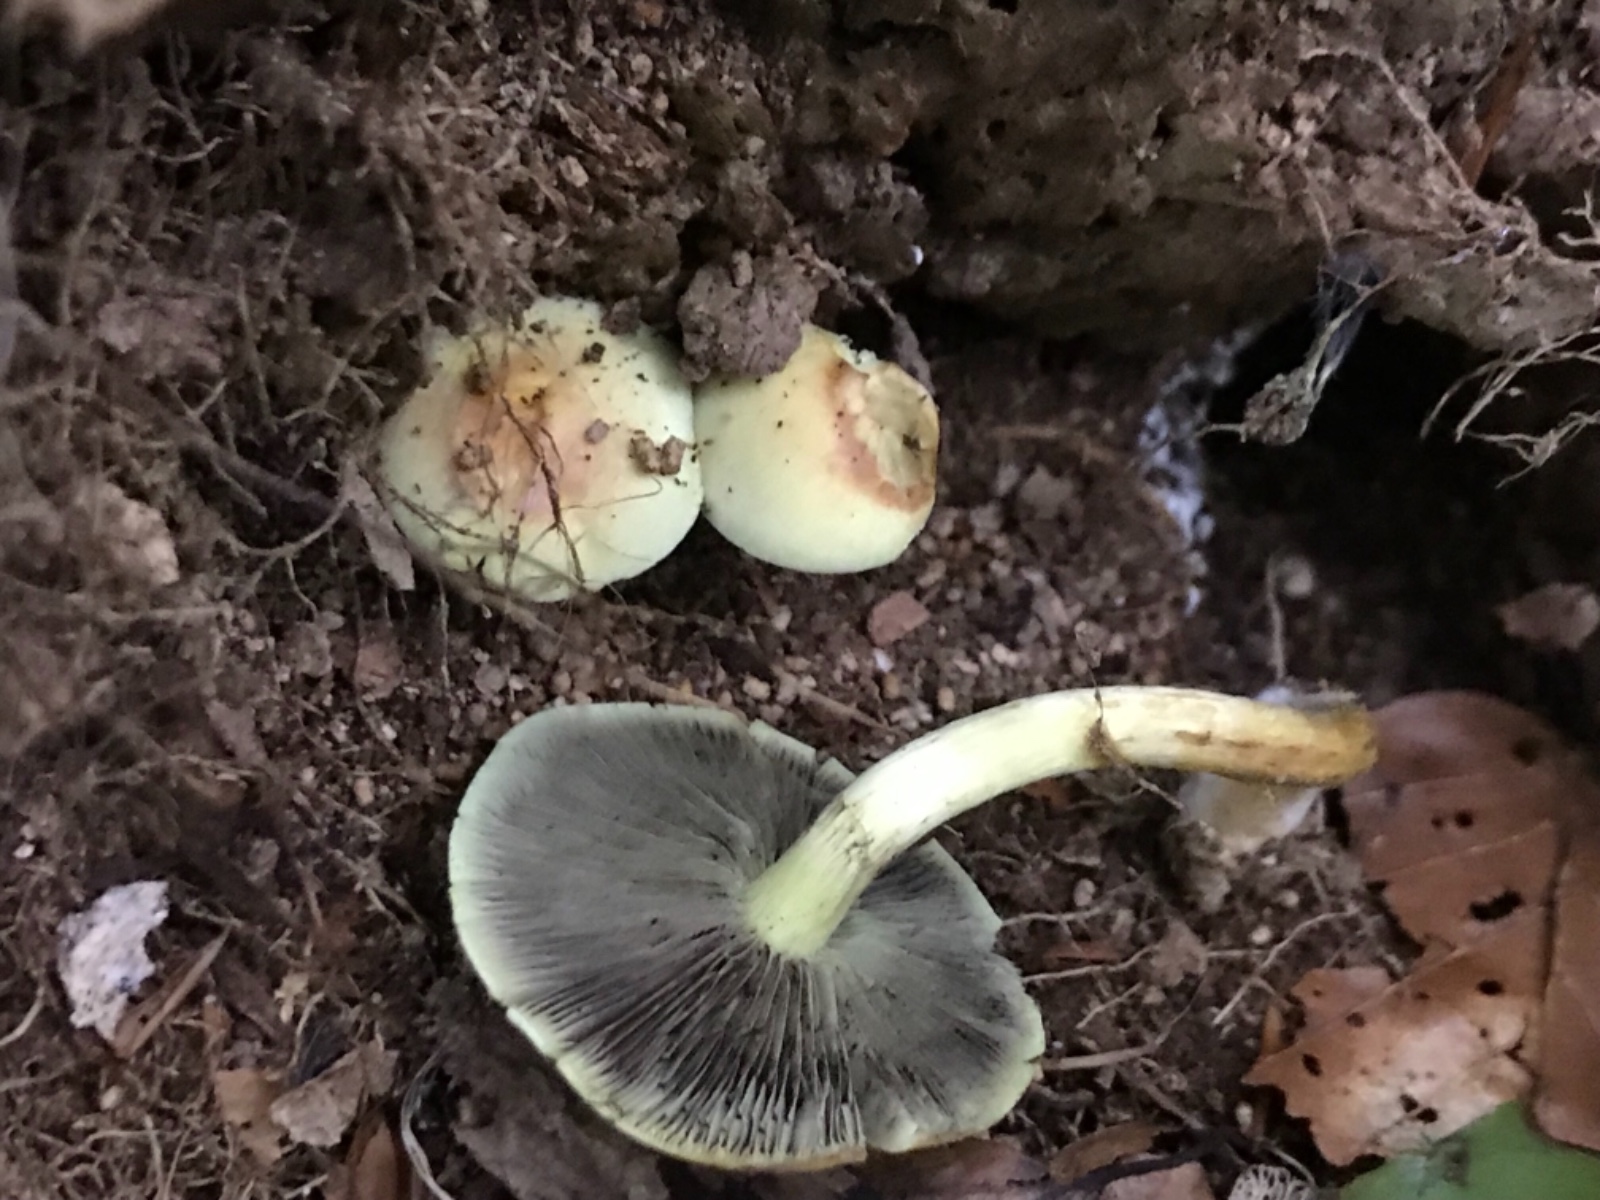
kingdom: Fungi
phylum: Basidiomycota
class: Agaricomycetes
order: Agaricales
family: Strophariaceae
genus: Hypholoma
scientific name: Hypholoma fasciculare
